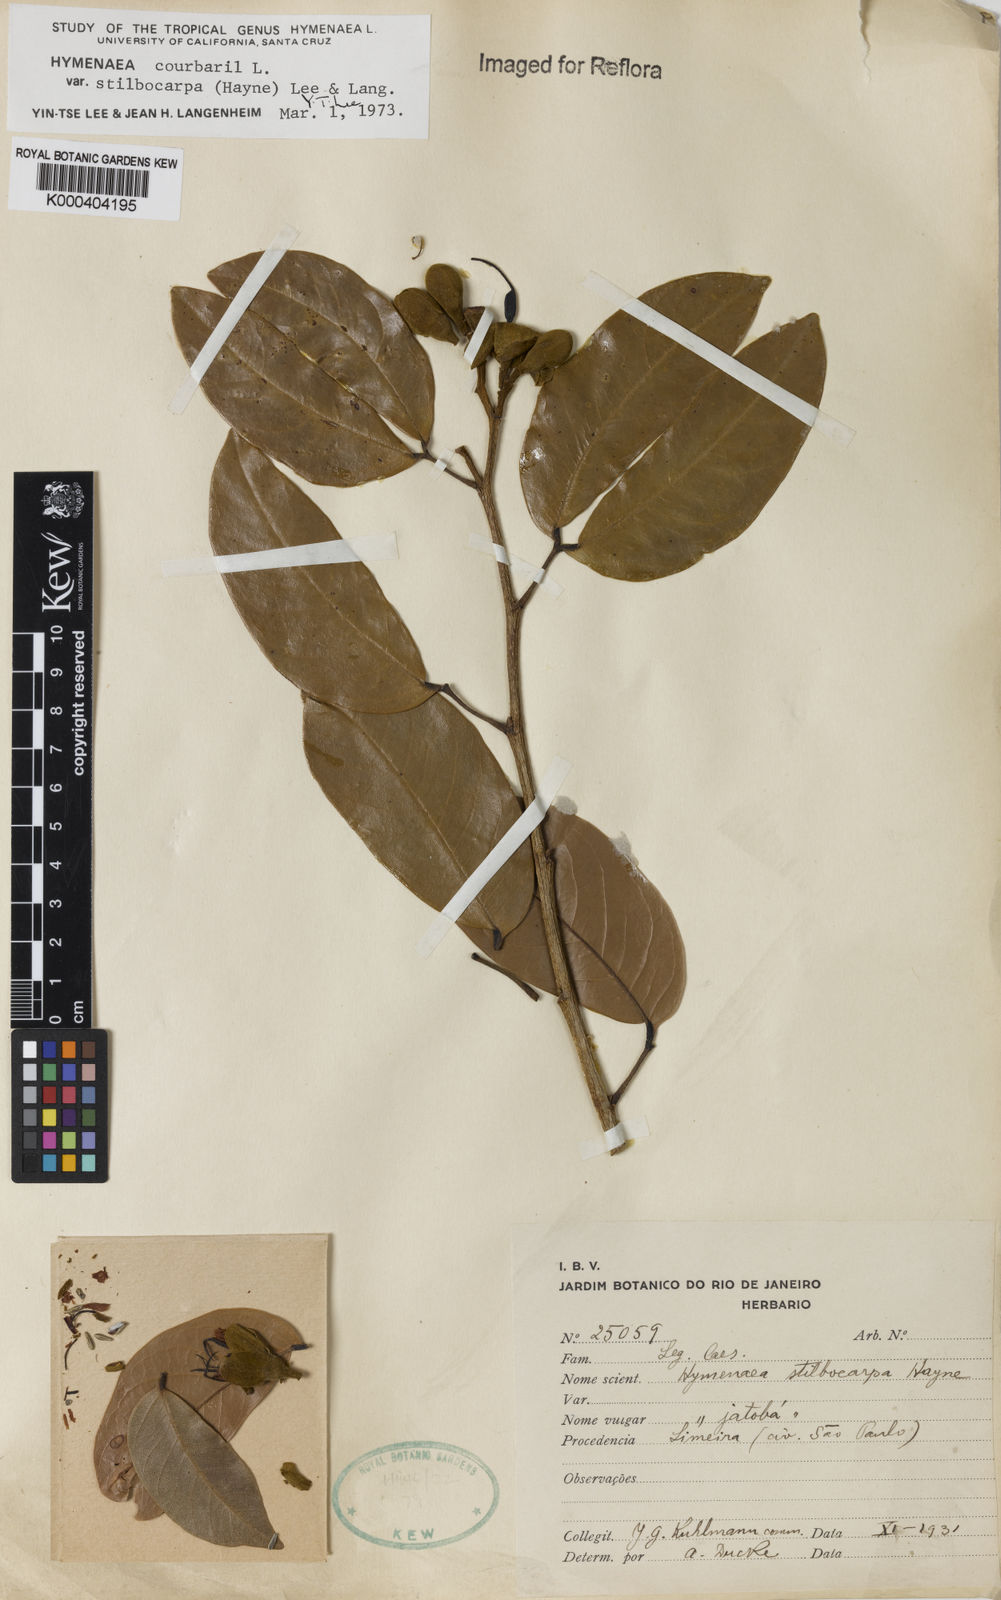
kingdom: Plantae
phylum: Tracheophyta
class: Magnoliopsida
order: Fabales
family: Fabaceae
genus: Hymenaea
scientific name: Hymenaea courbaril
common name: Brazilian copal
